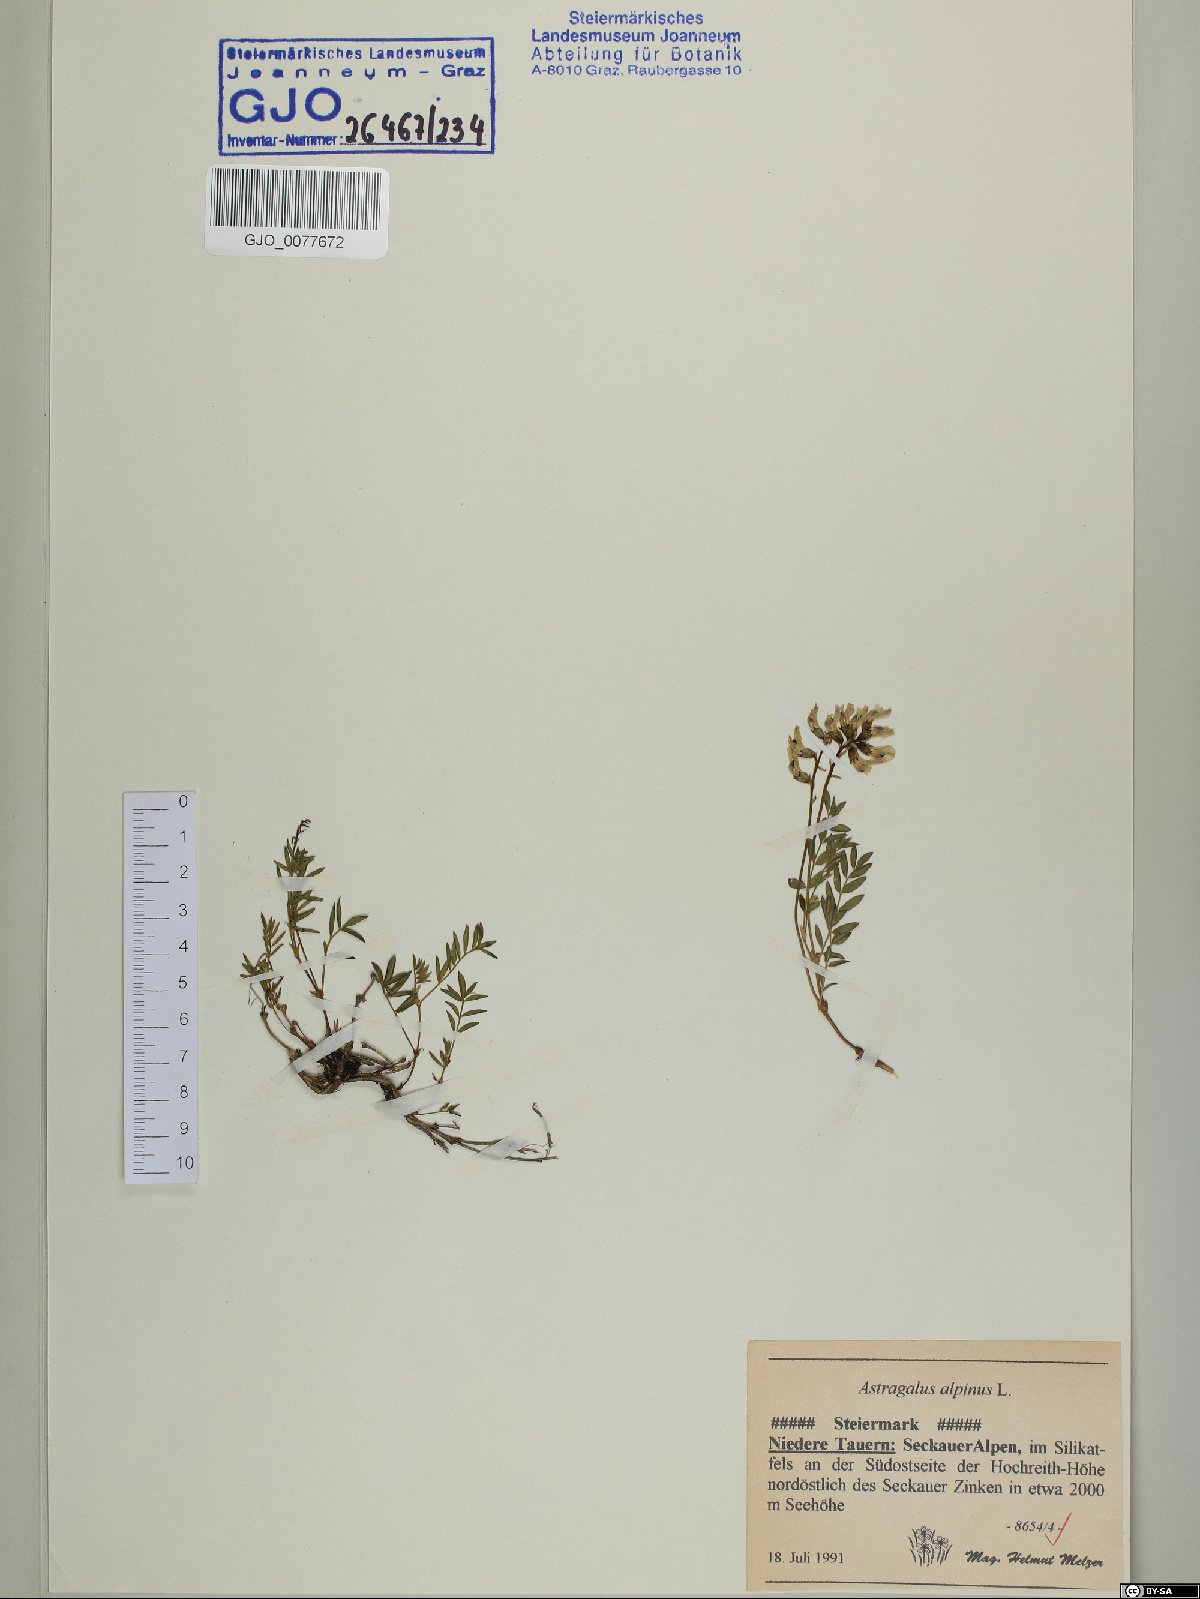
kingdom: Plantae
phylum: Tracheophyta
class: Magnoliopsida
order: Fabales
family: Fabaceae
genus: Astragalus
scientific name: Astragalus alpinus
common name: Alpine milk-vetch
